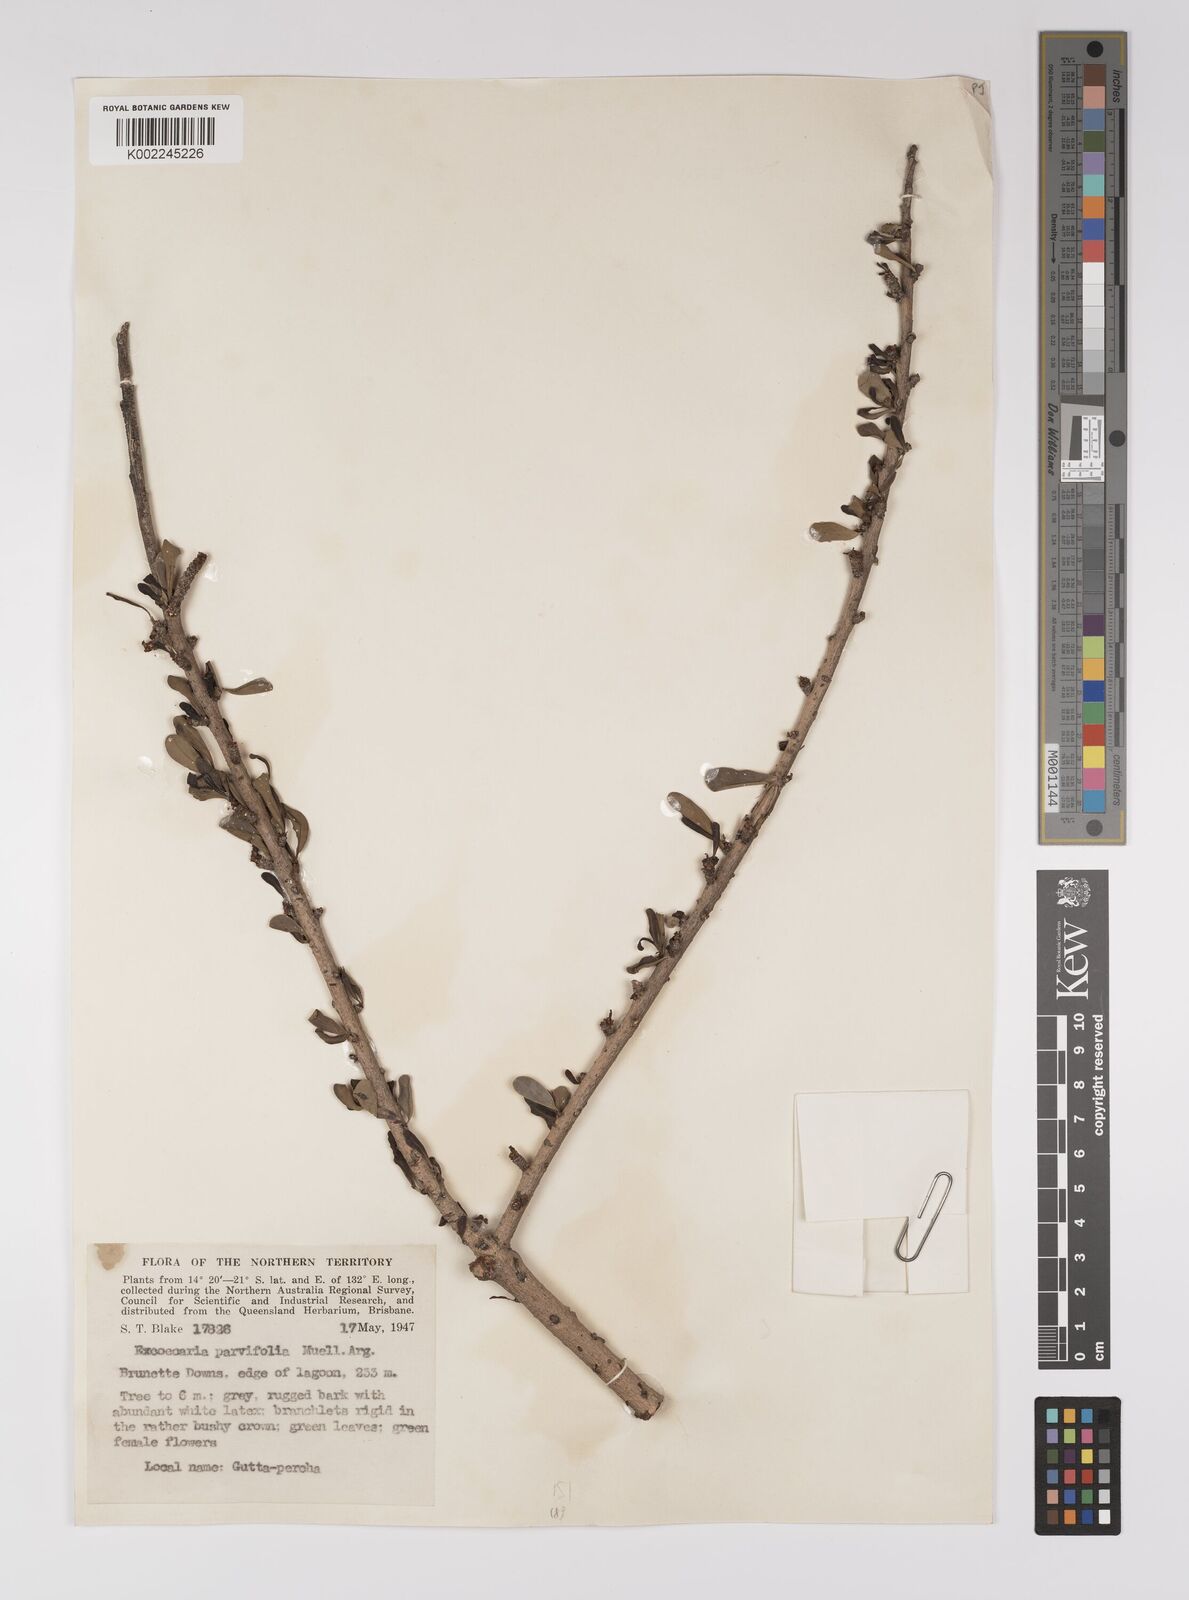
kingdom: Plantae
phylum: Tracheophyta
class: Magnoliopsida
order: Malpighiales
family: Euphorbiaceae
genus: Excoecaria
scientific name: Excoecaria parvifolia
